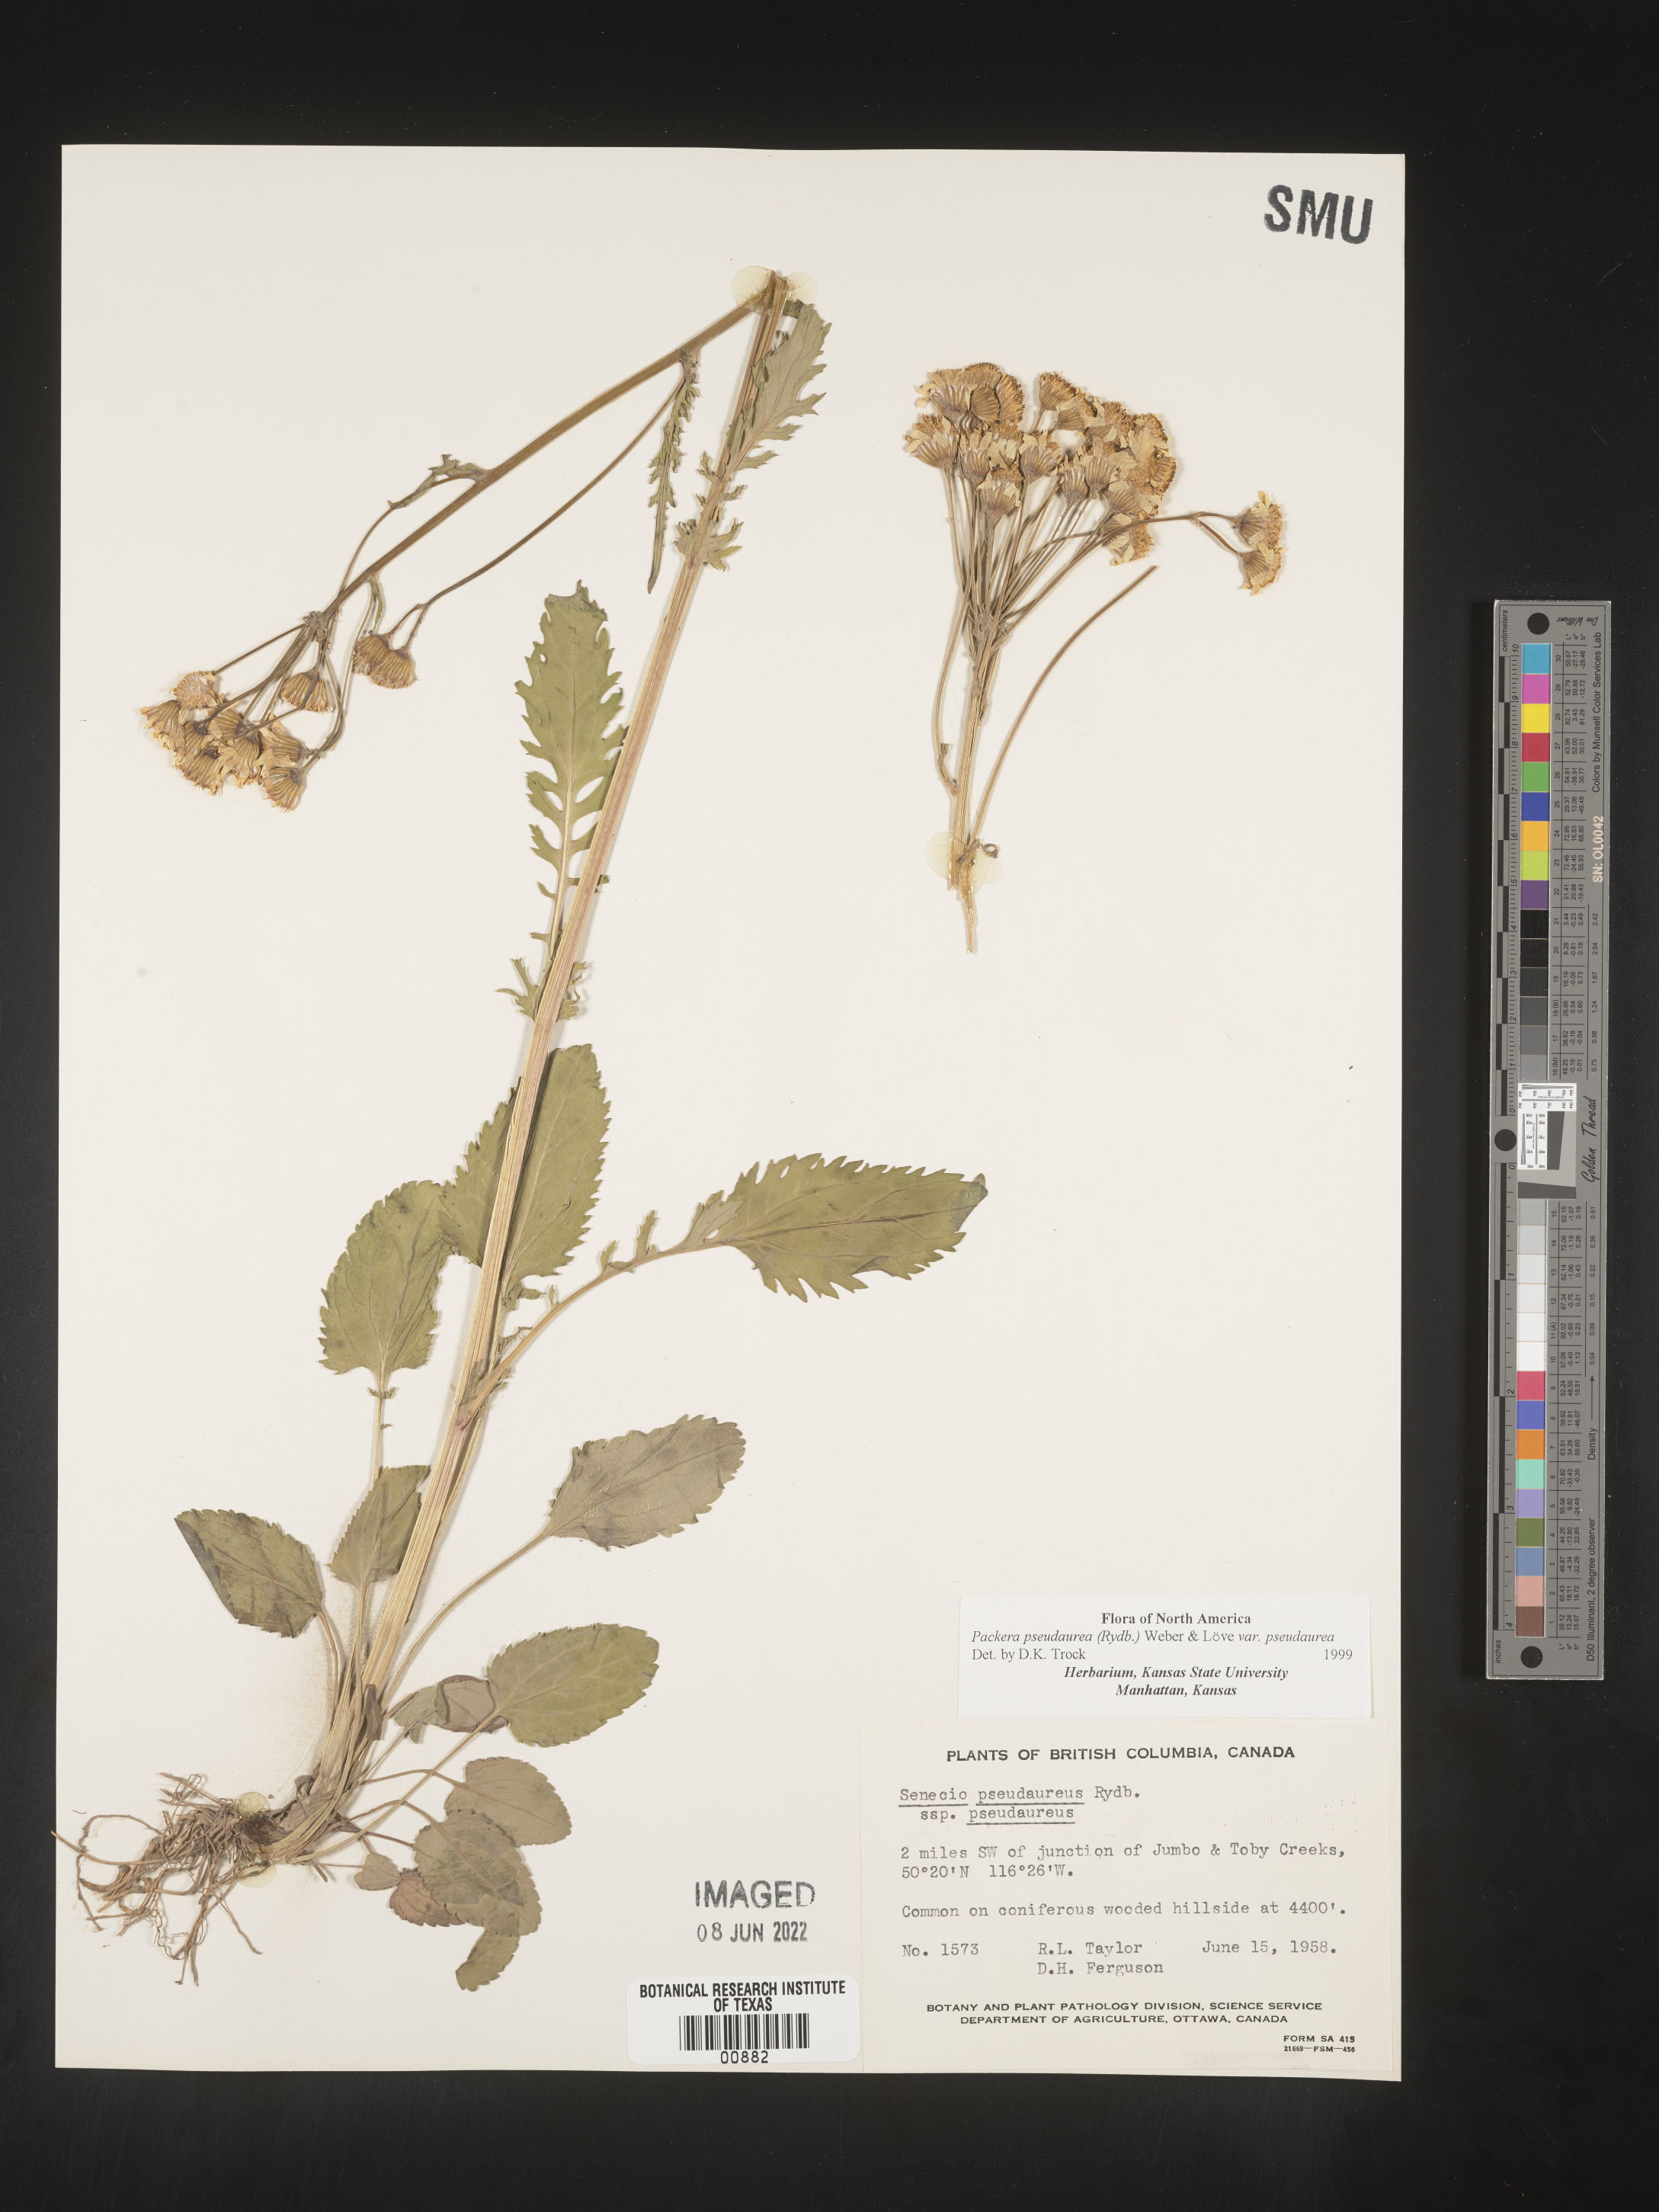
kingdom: Plantae
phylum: Tracheophyta
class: Magnoliopsida
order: Asterales
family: Asteraceae
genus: Packera
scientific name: Packera pseudaurea
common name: False-gold groundsel
